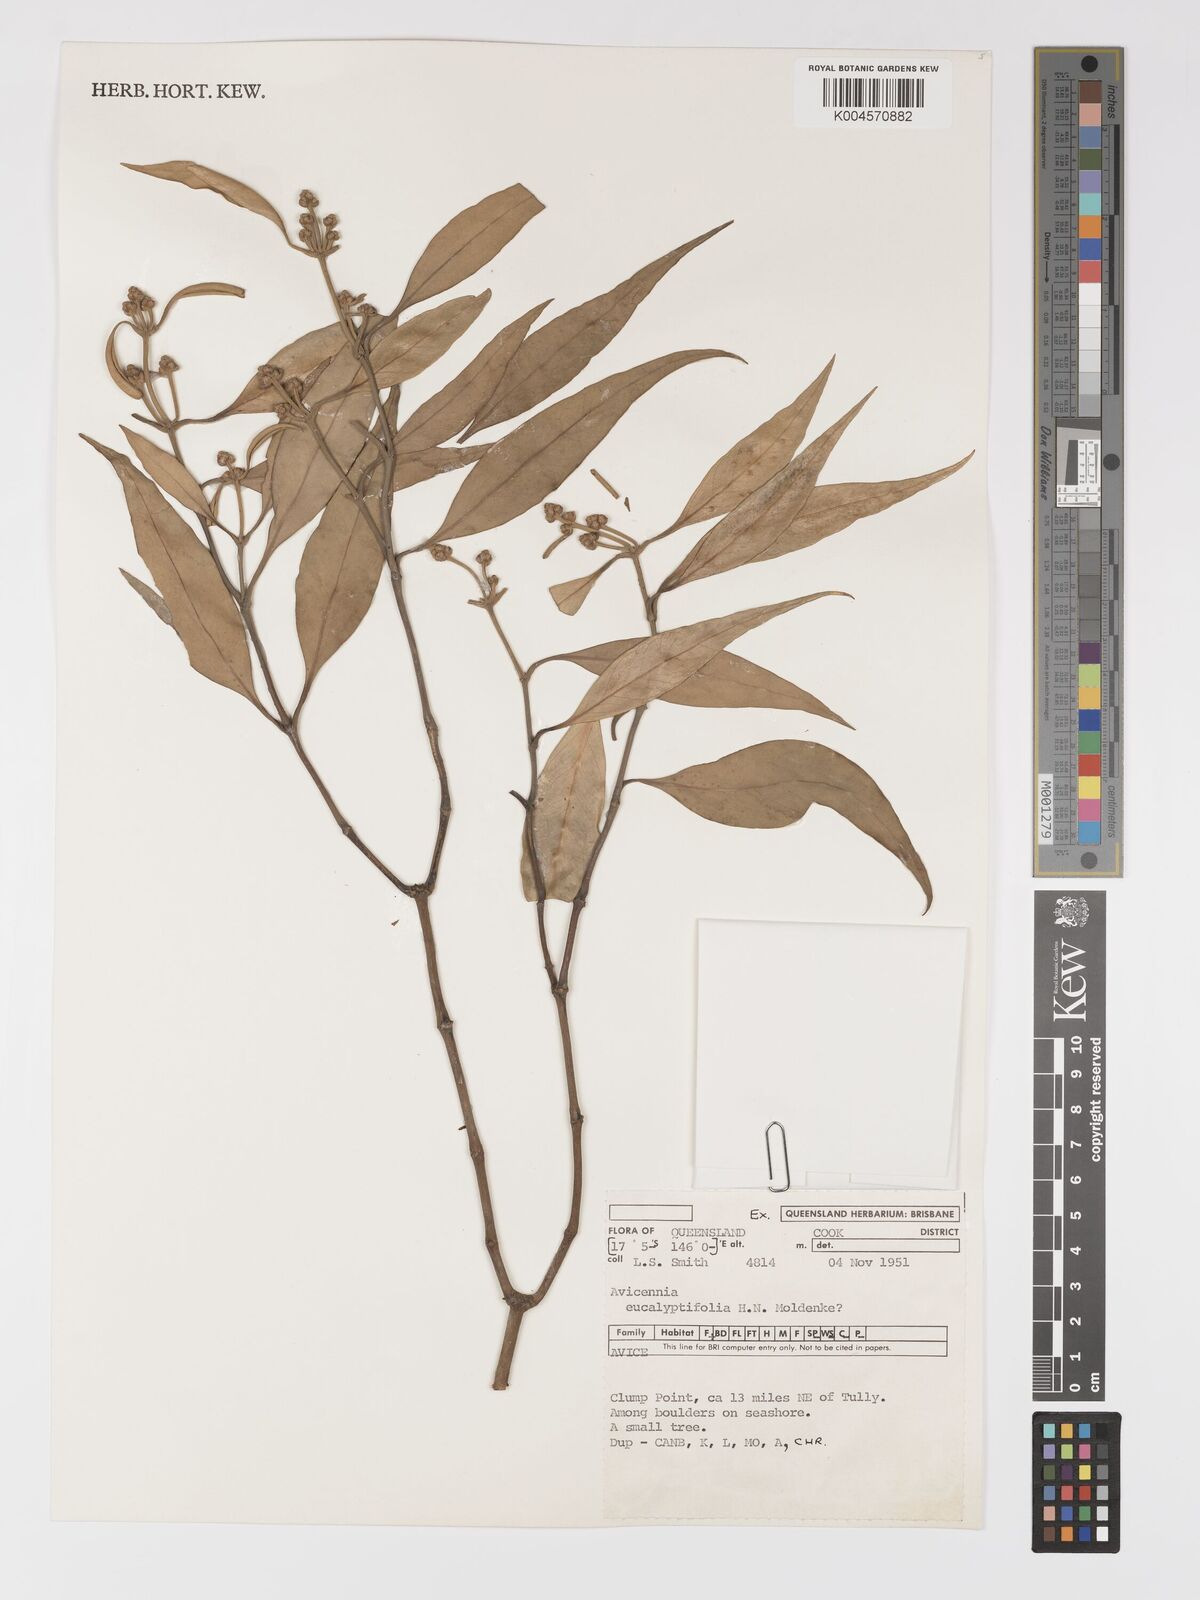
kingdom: Plantae
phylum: Tracheophyta
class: Magnoliopsida
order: Lamiales
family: Acanthaceae
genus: Avicennia
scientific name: Avicennia marina
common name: Gray mangrove
